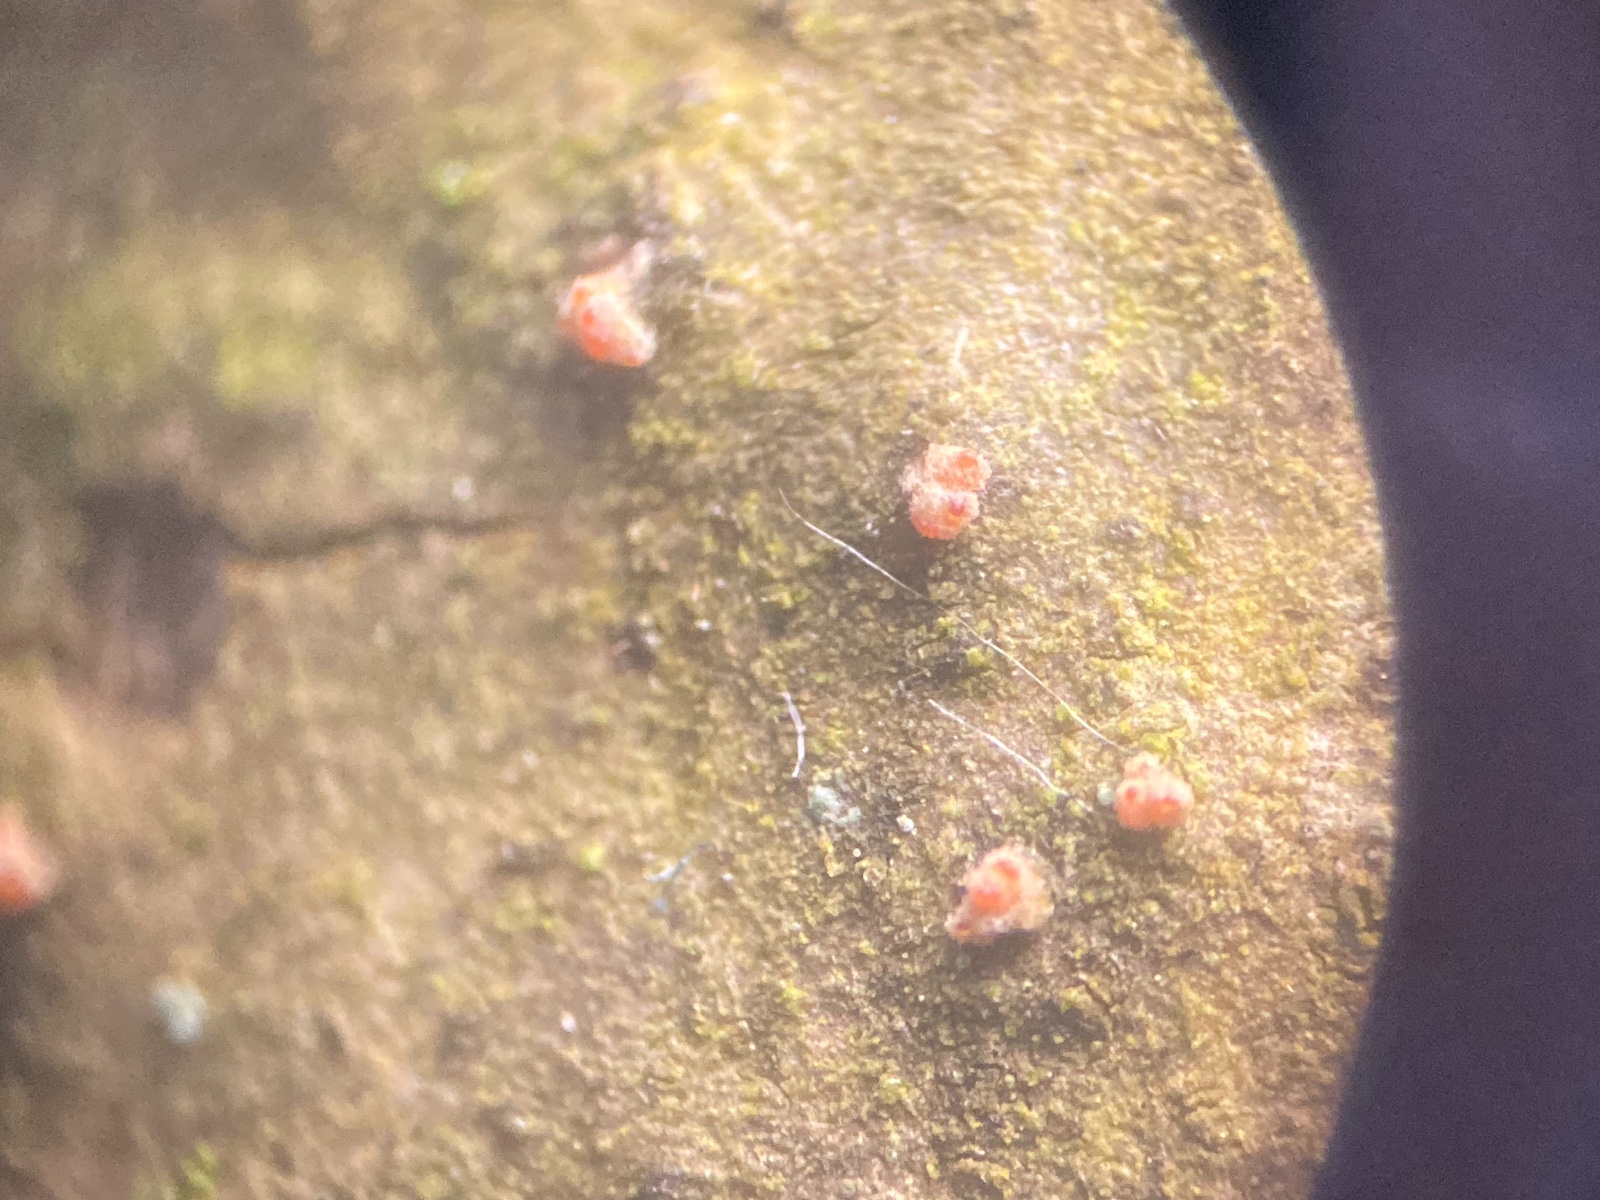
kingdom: Fungi
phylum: Ascomycota
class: Sordariomycetes
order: Hypocreales
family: Flammocladiellaceae
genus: Flammocladiella
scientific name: Flammocladiella decora
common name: kulvulkan-cinnobersvamp
